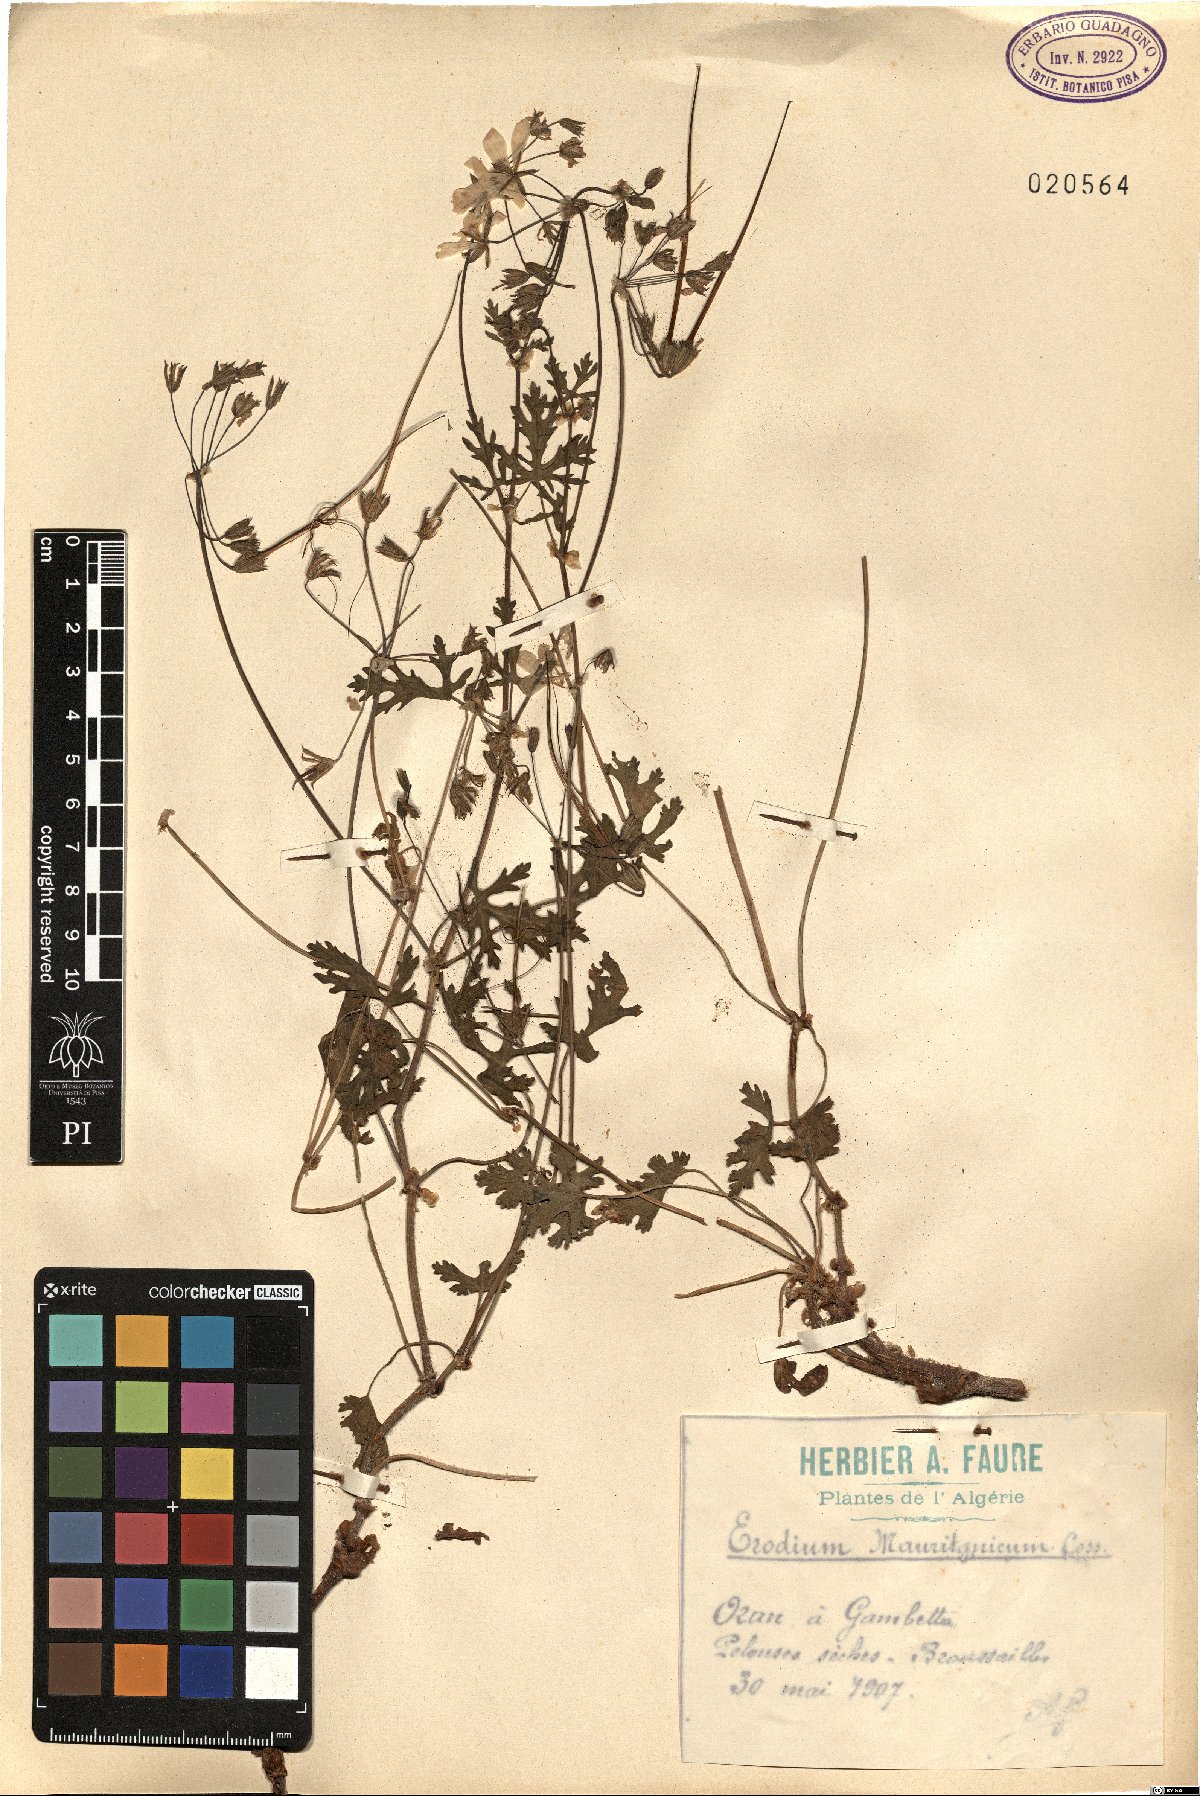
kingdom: Plantae
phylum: Tracheophyta
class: Magnoliopsida
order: Geraniales
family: Geraniaceae
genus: Erodium
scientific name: Erodium munbyanum
